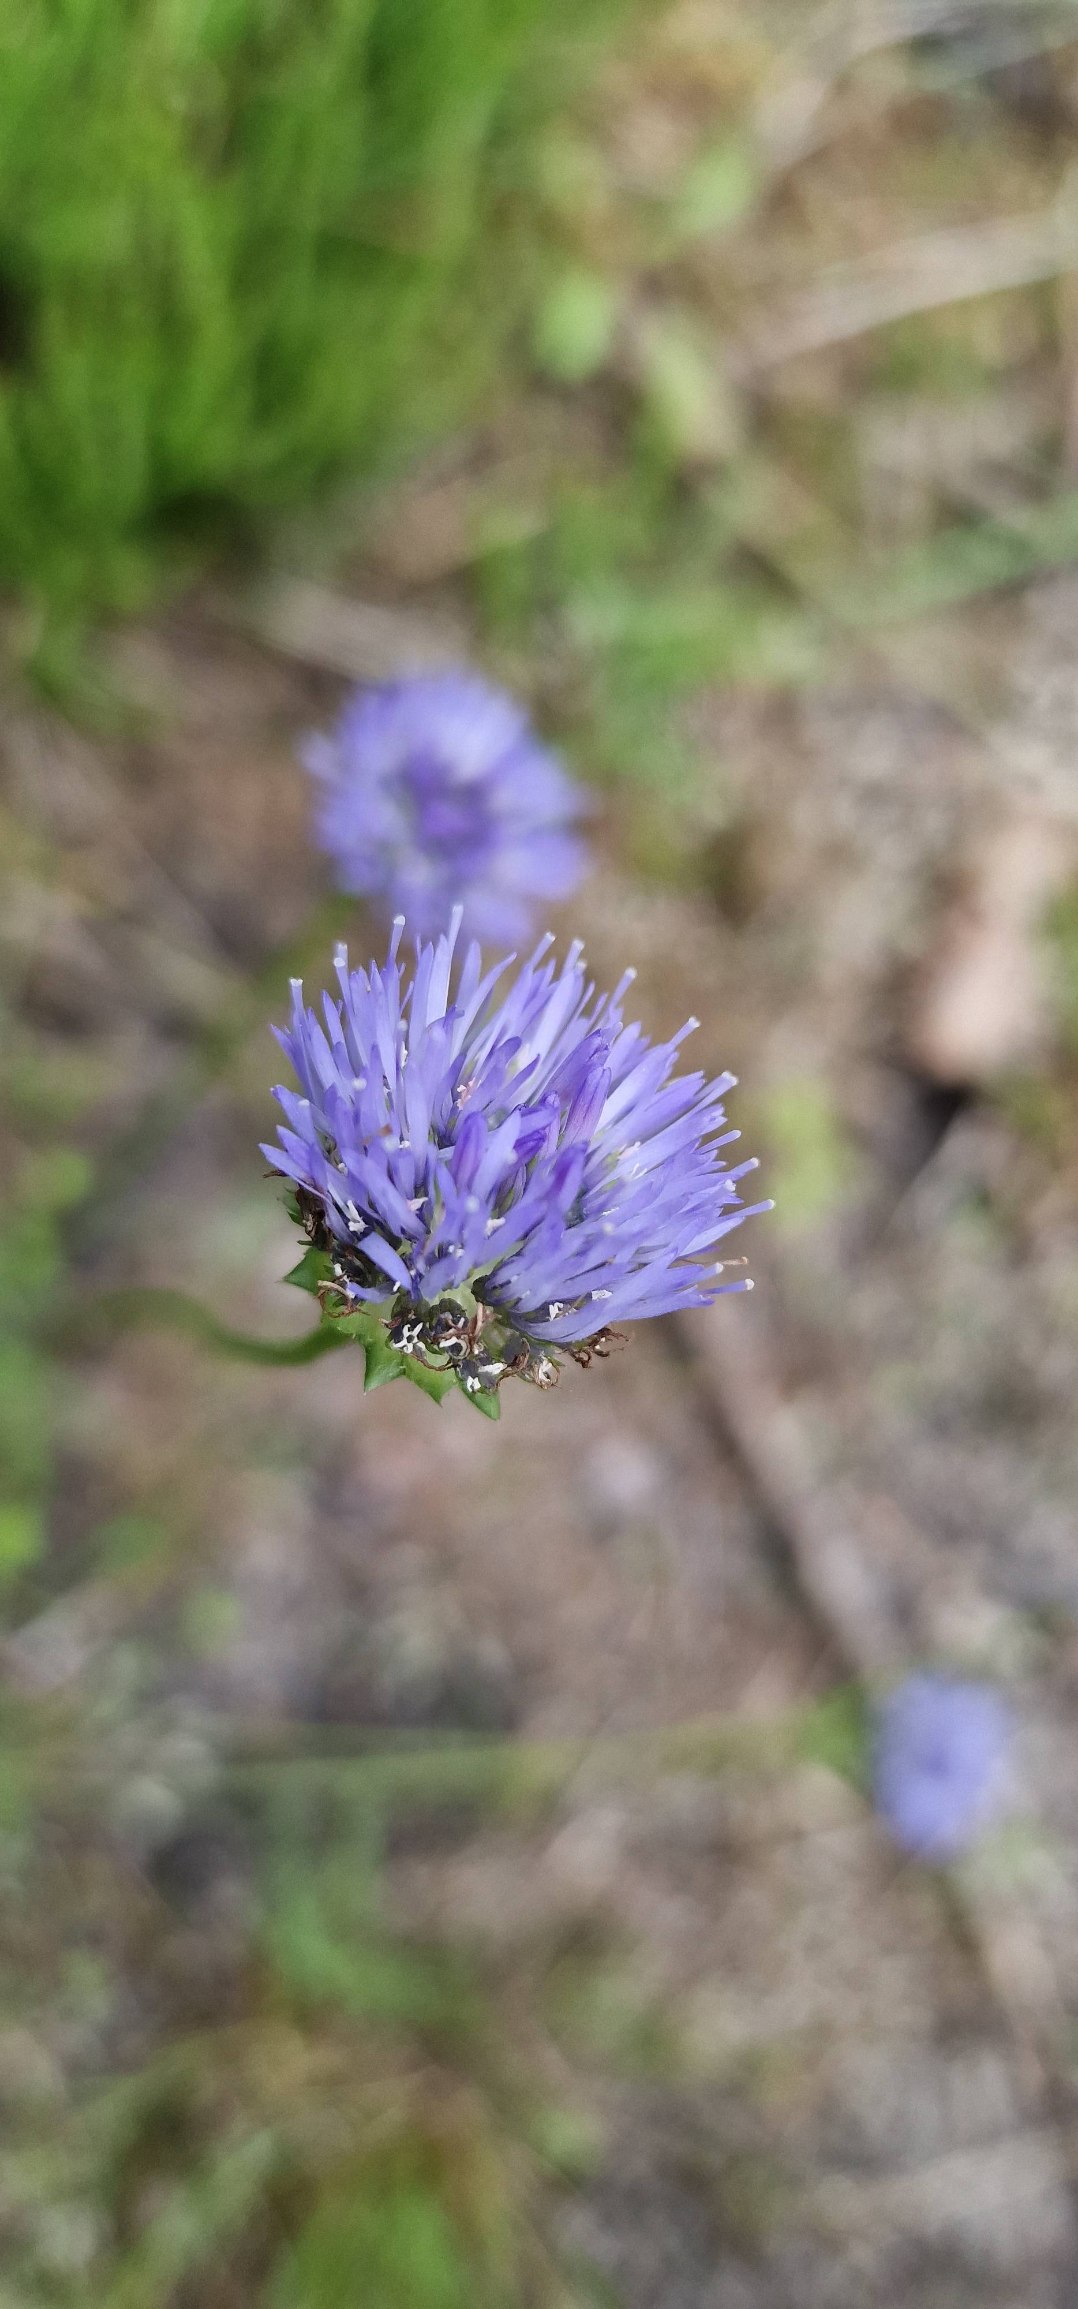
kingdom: Plantae
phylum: Tracheophyta
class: Magnoliopsida
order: Asterales
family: Campanulaceae
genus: Jasione
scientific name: Jasione montana
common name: Blåmunke
